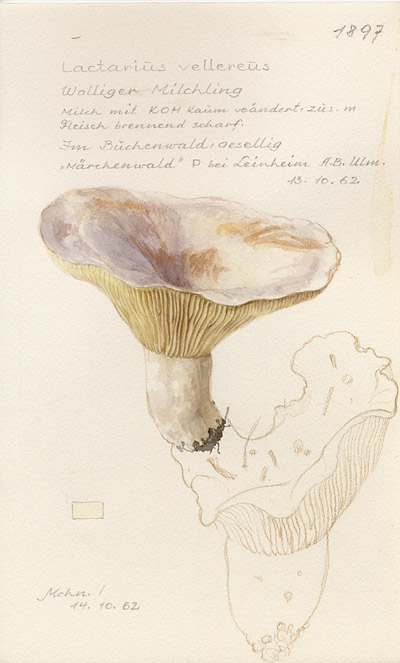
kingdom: Fungi
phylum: Basidiomycota
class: Agaricomycetes
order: Russulales
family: Russulaceae
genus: Lactifluus
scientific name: Lactifluus vellereus
